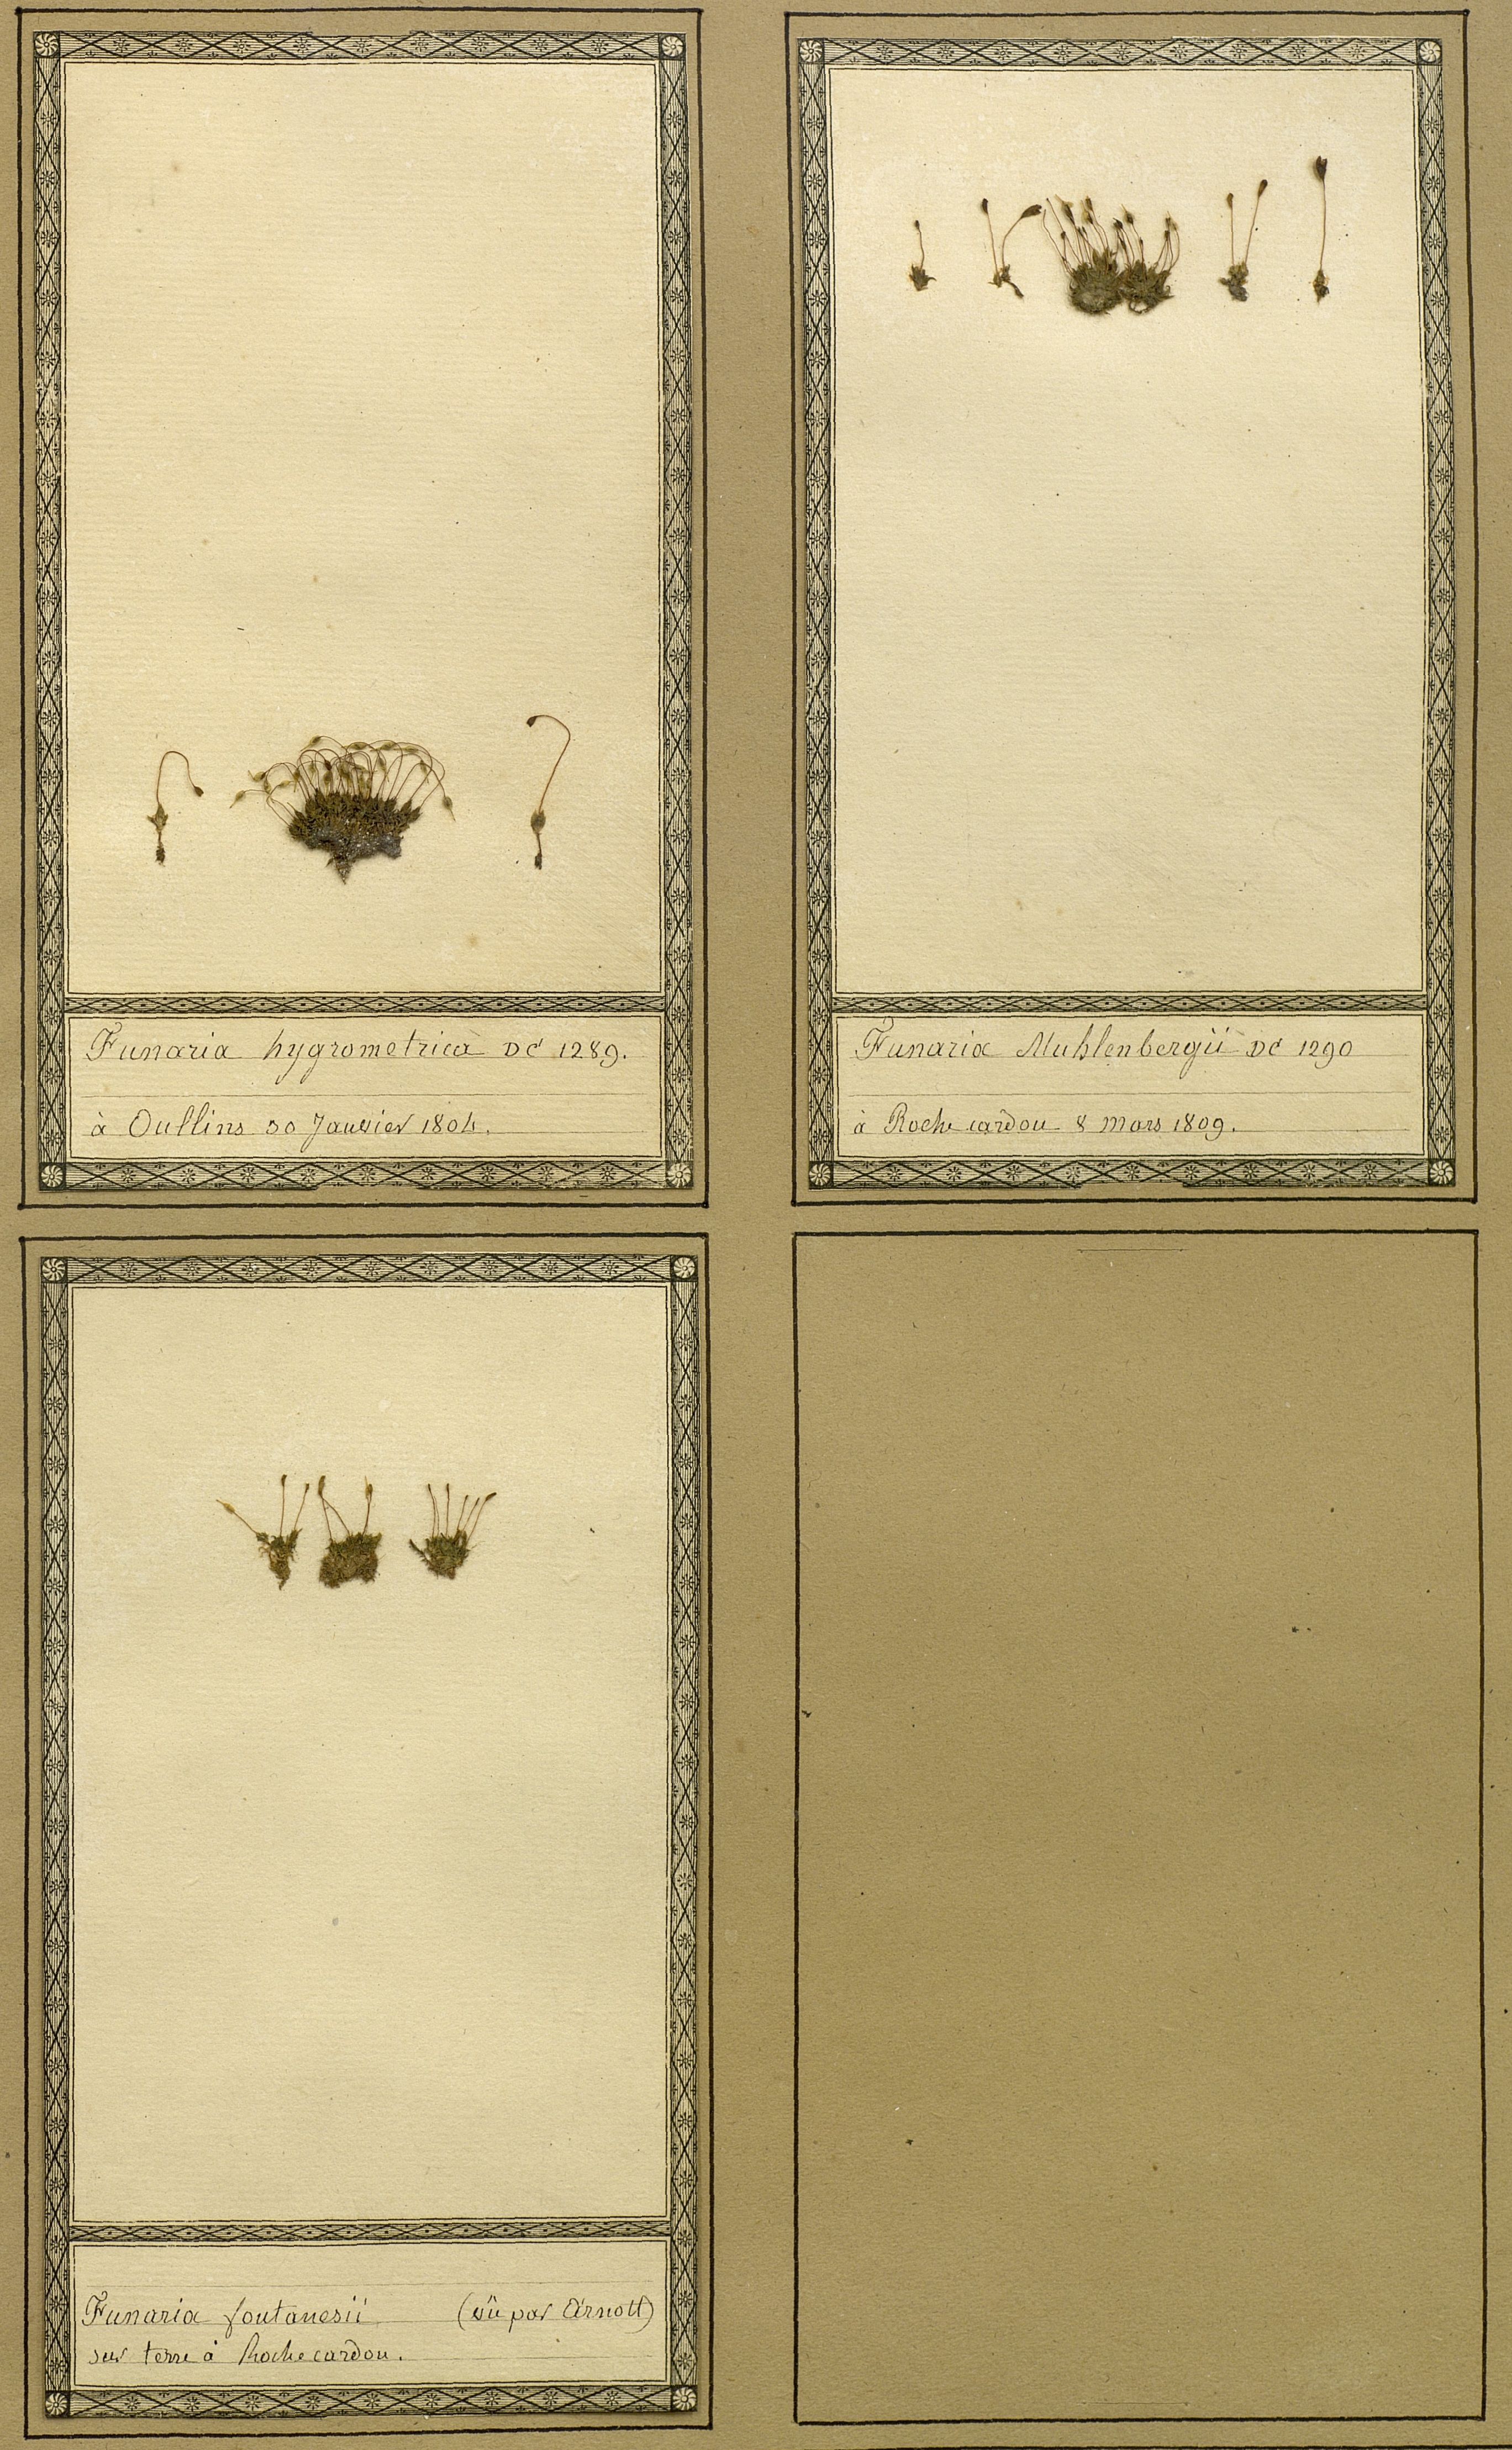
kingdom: Plantae
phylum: Bryophyta
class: Bryopsida
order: Funariales
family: Funariaceae
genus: Funaria
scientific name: Funaria hygrometrica
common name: Common cord moss
